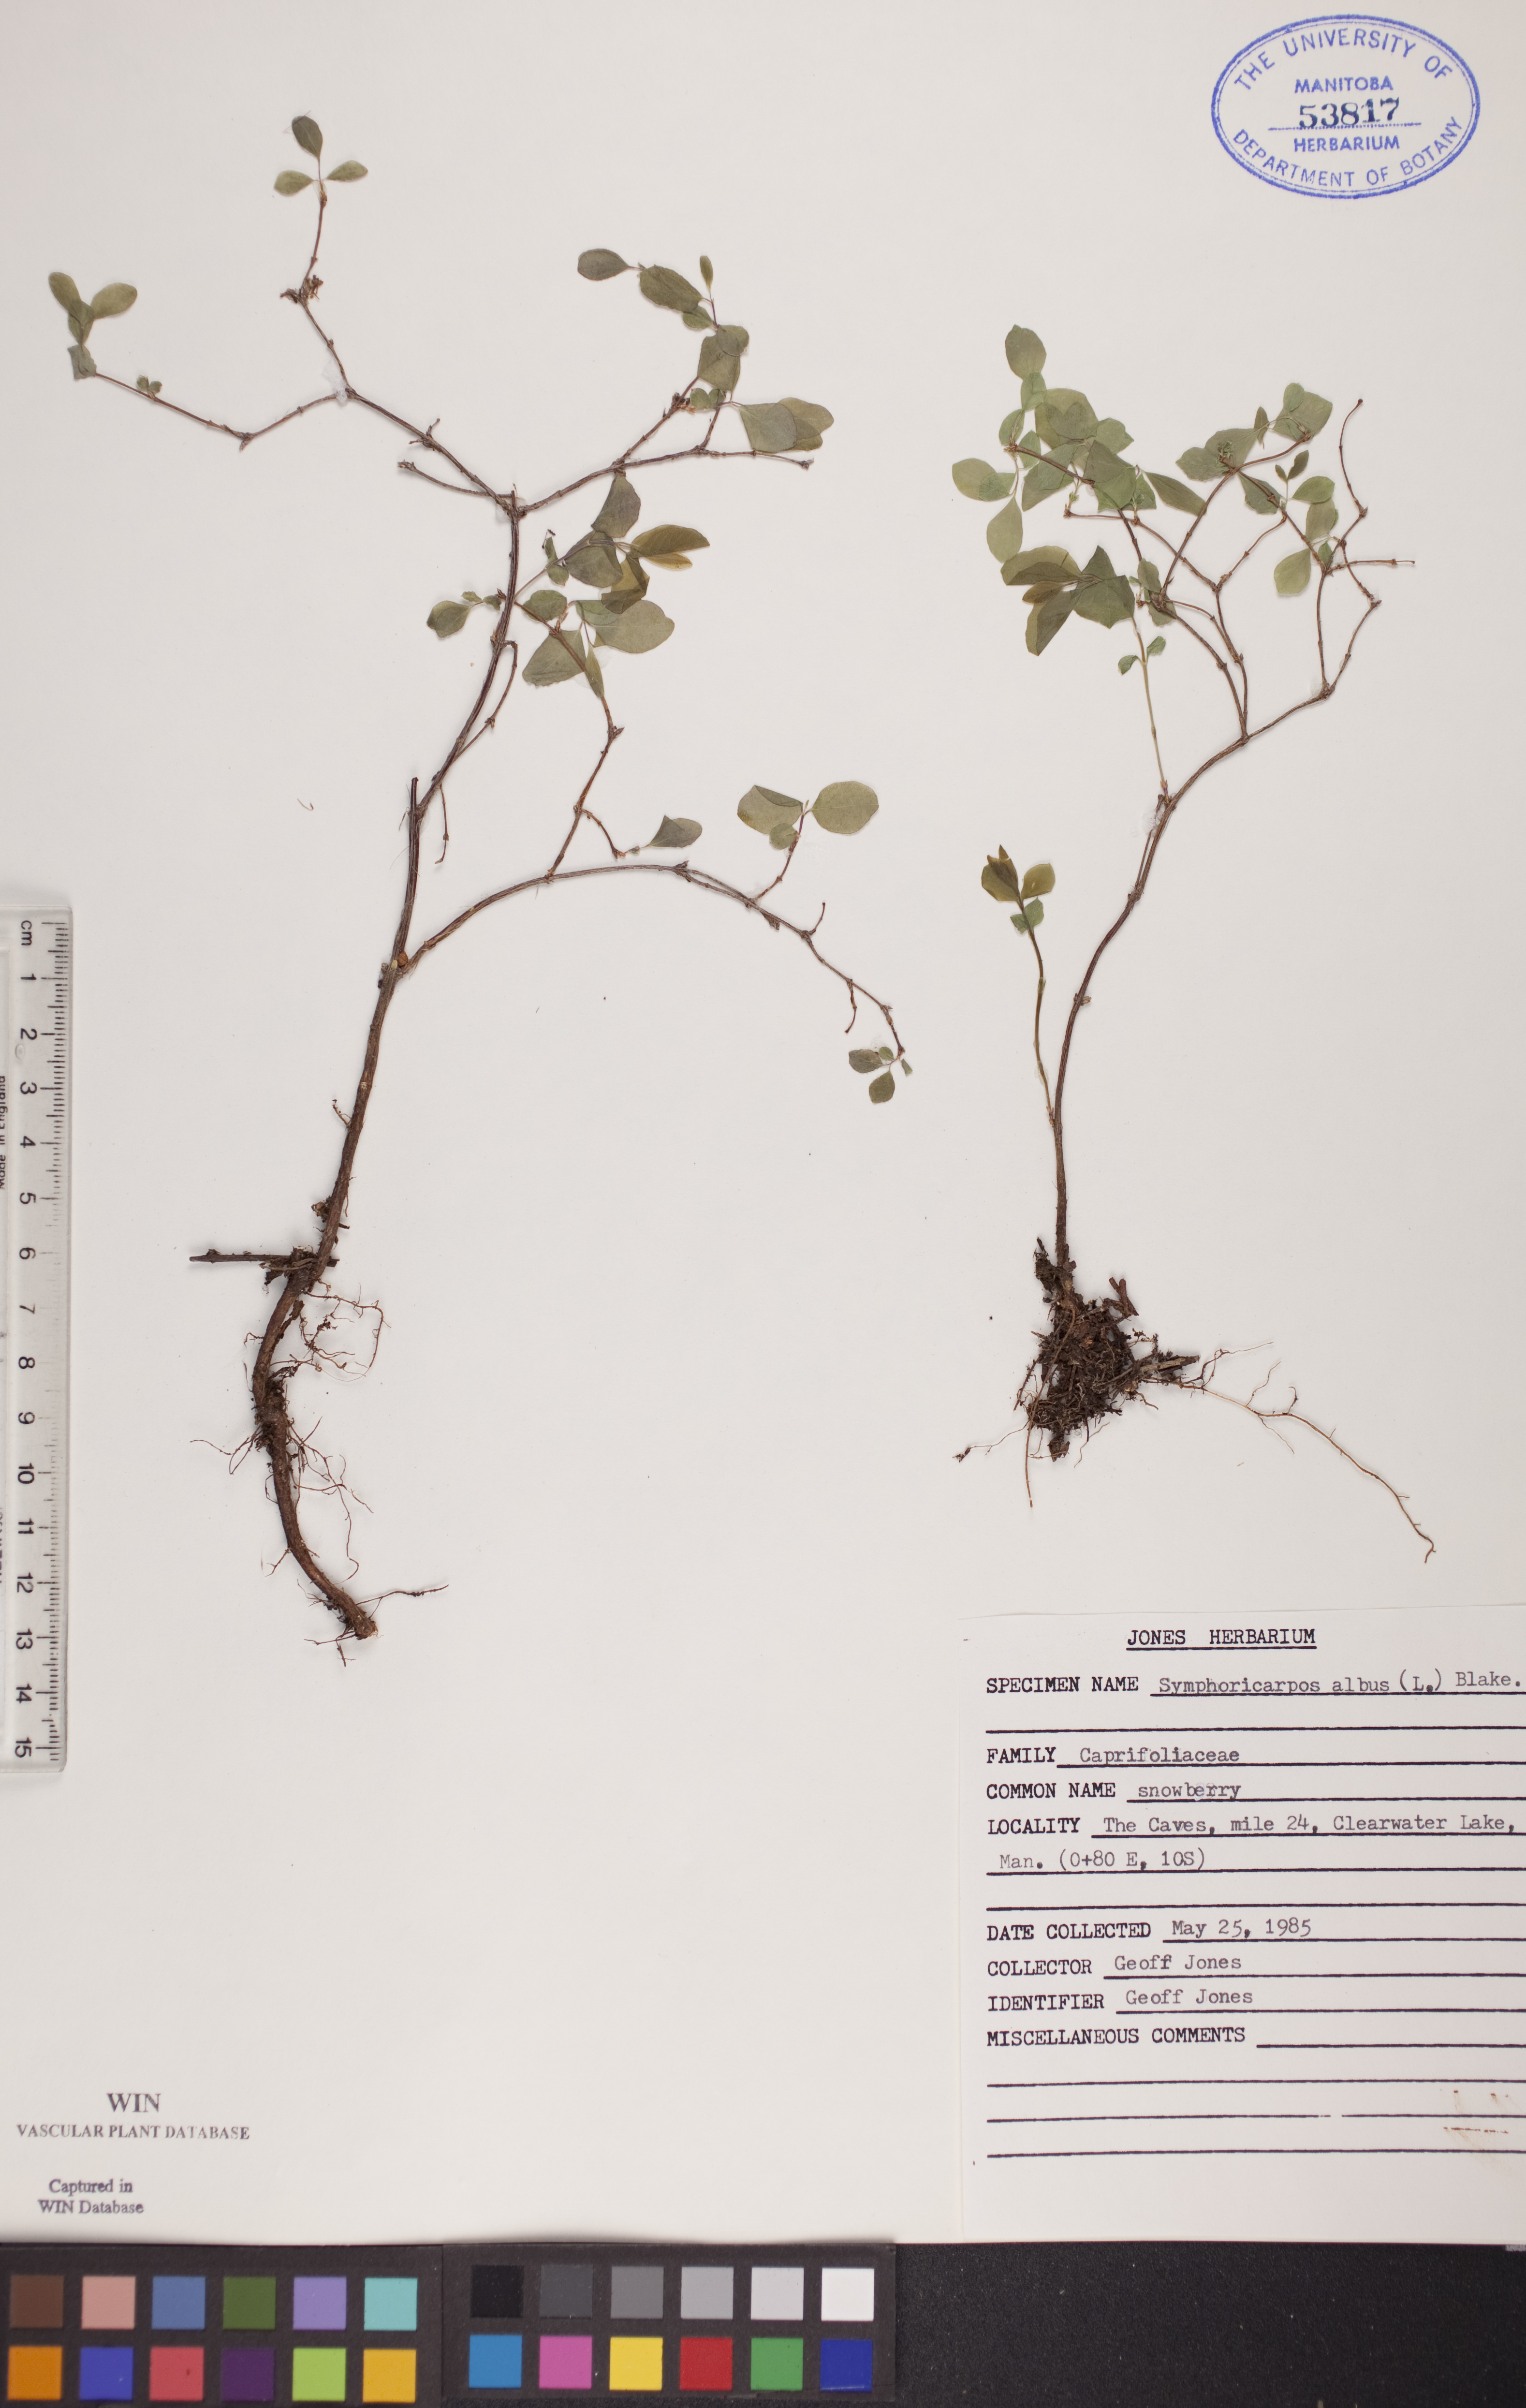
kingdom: Plantae
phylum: Tracheophyta
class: Magnoliopsida
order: Dipsacales
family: Caprifoliaceae
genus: Symphoricarpos
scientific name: Symphoricarpos albus
